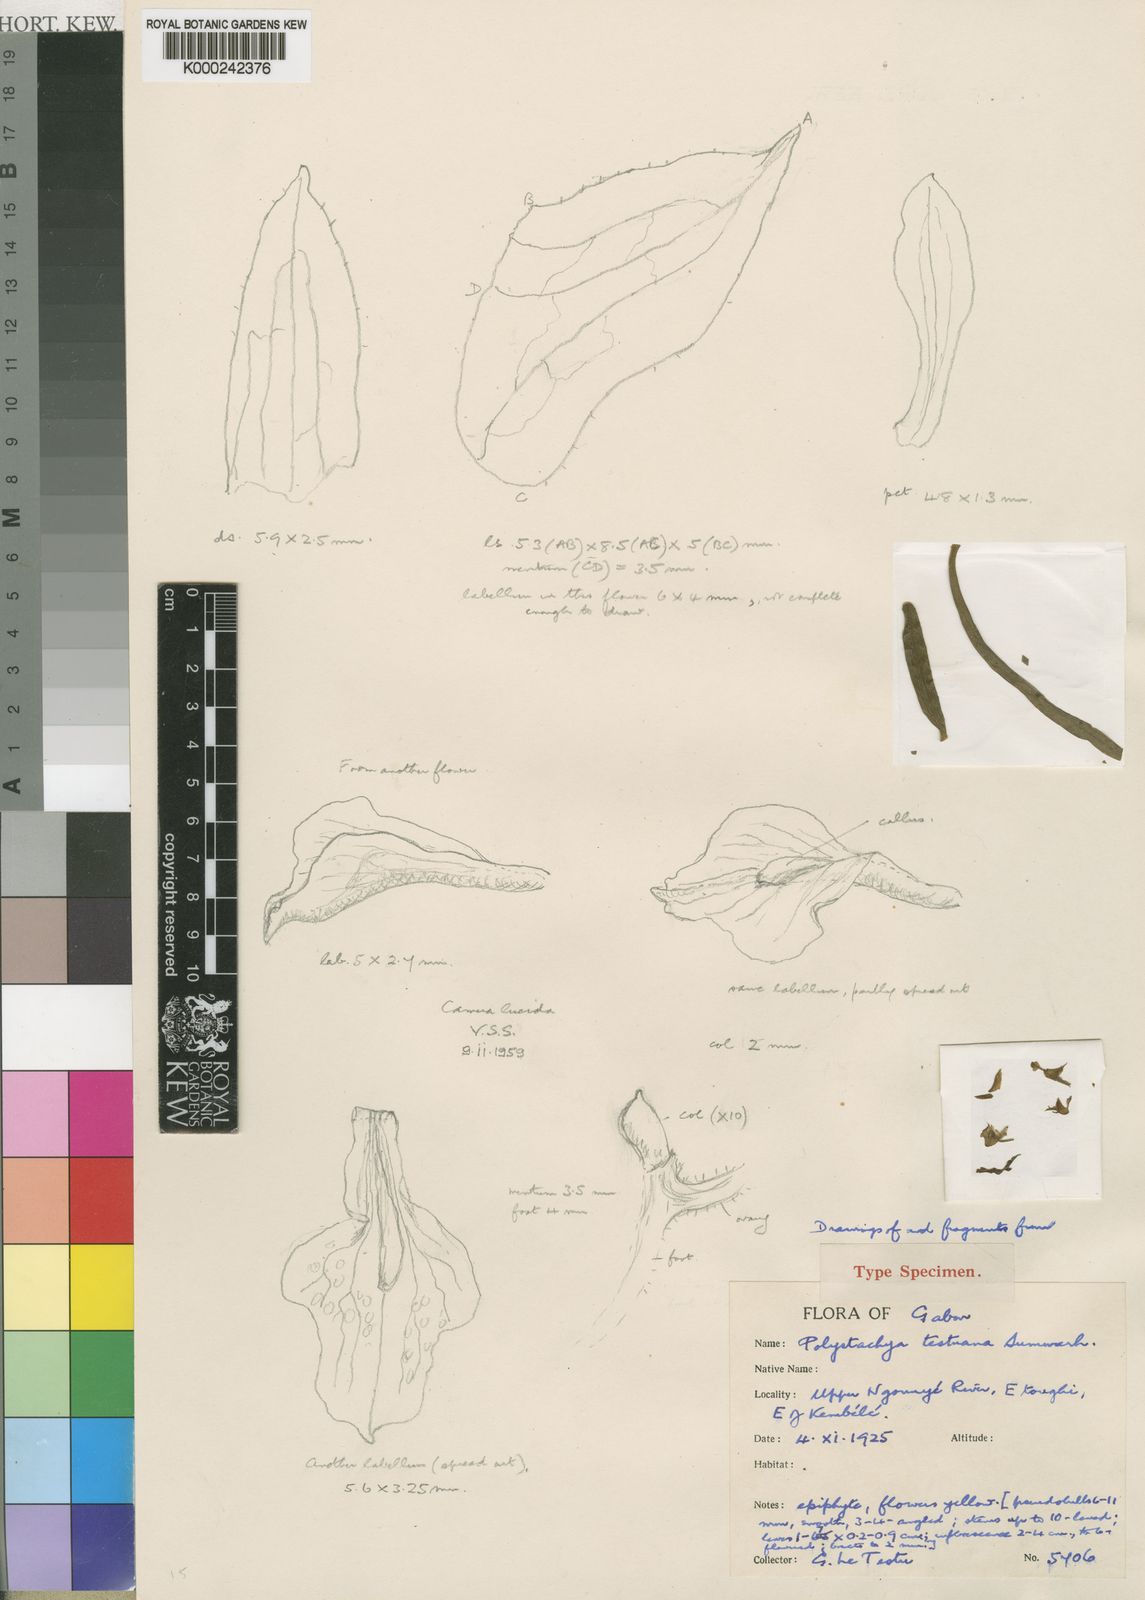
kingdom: Plantae
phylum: Tracheophyta
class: Liliopsida
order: Asparagales
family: Orchidaceae
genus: Polystachya
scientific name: Polystachya testuana
